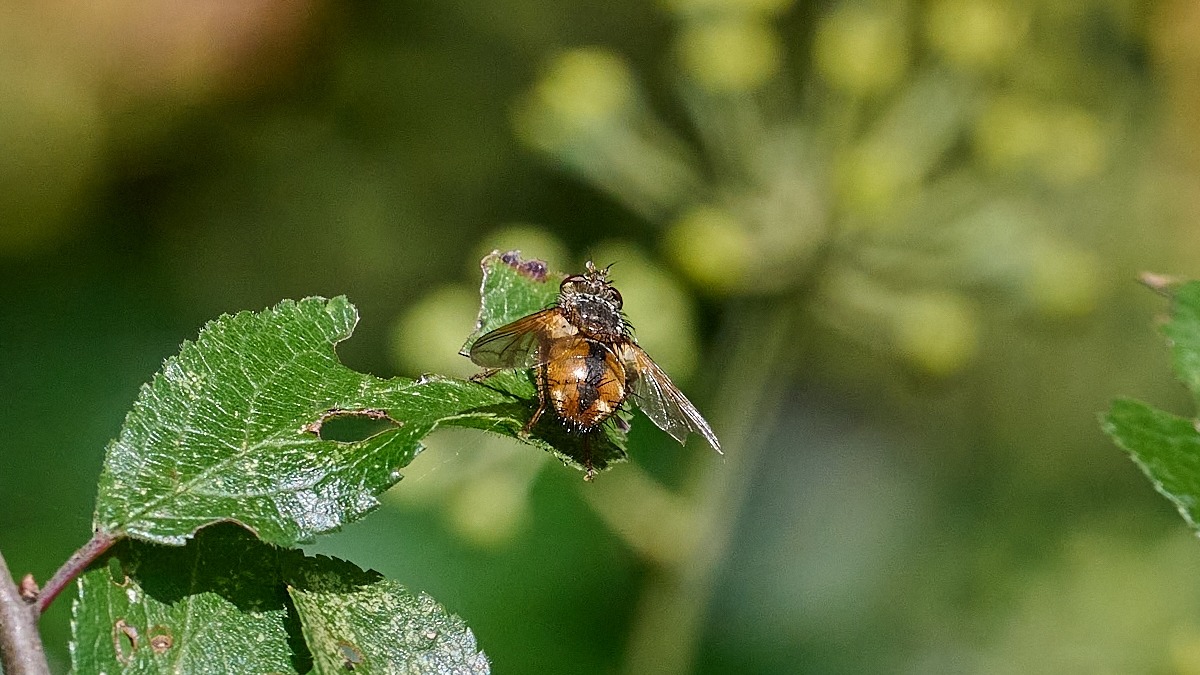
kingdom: Animalia
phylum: Arthropoda
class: Insecta
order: Diptera
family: Tachinidae
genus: Tachina
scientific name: Tachina fera
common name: Mellemfluen oskar
